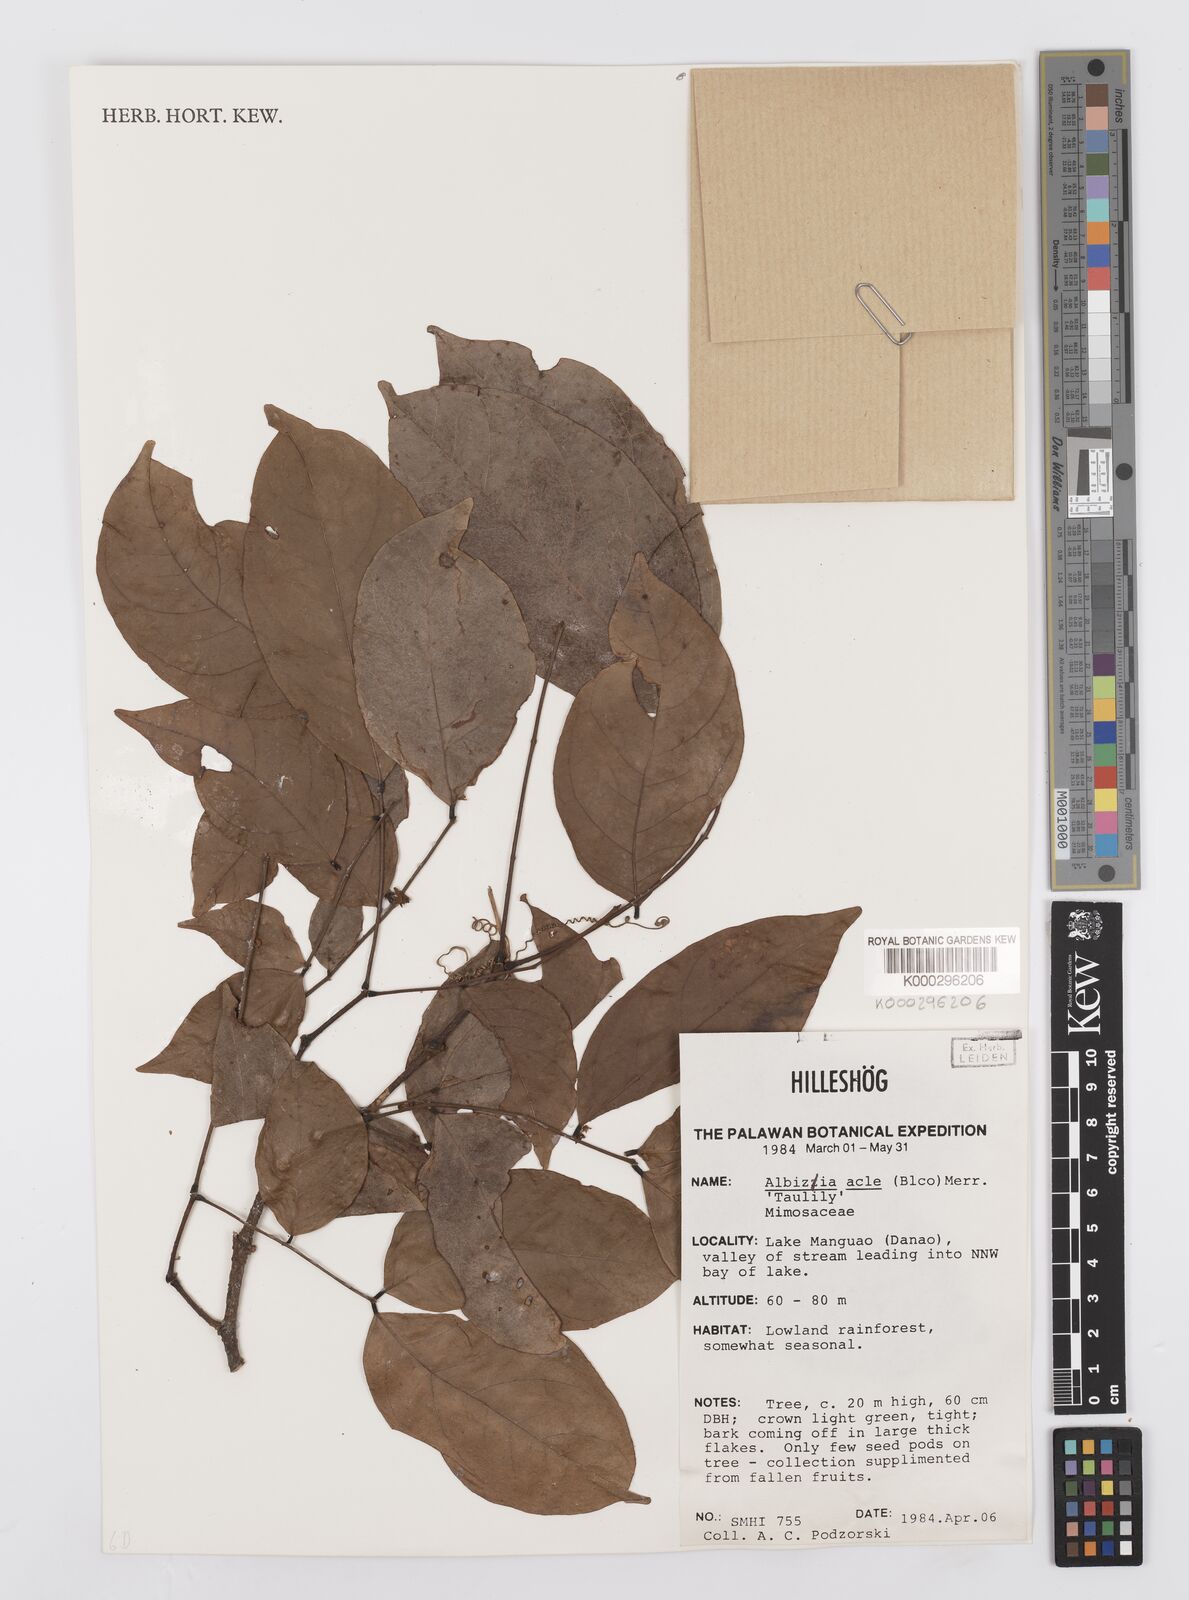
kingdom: Plantae
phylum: Tracheophyta
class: Magnoliopsida
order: Fabales
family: Fabaceae
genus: Albizia
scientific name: Albizia acle
